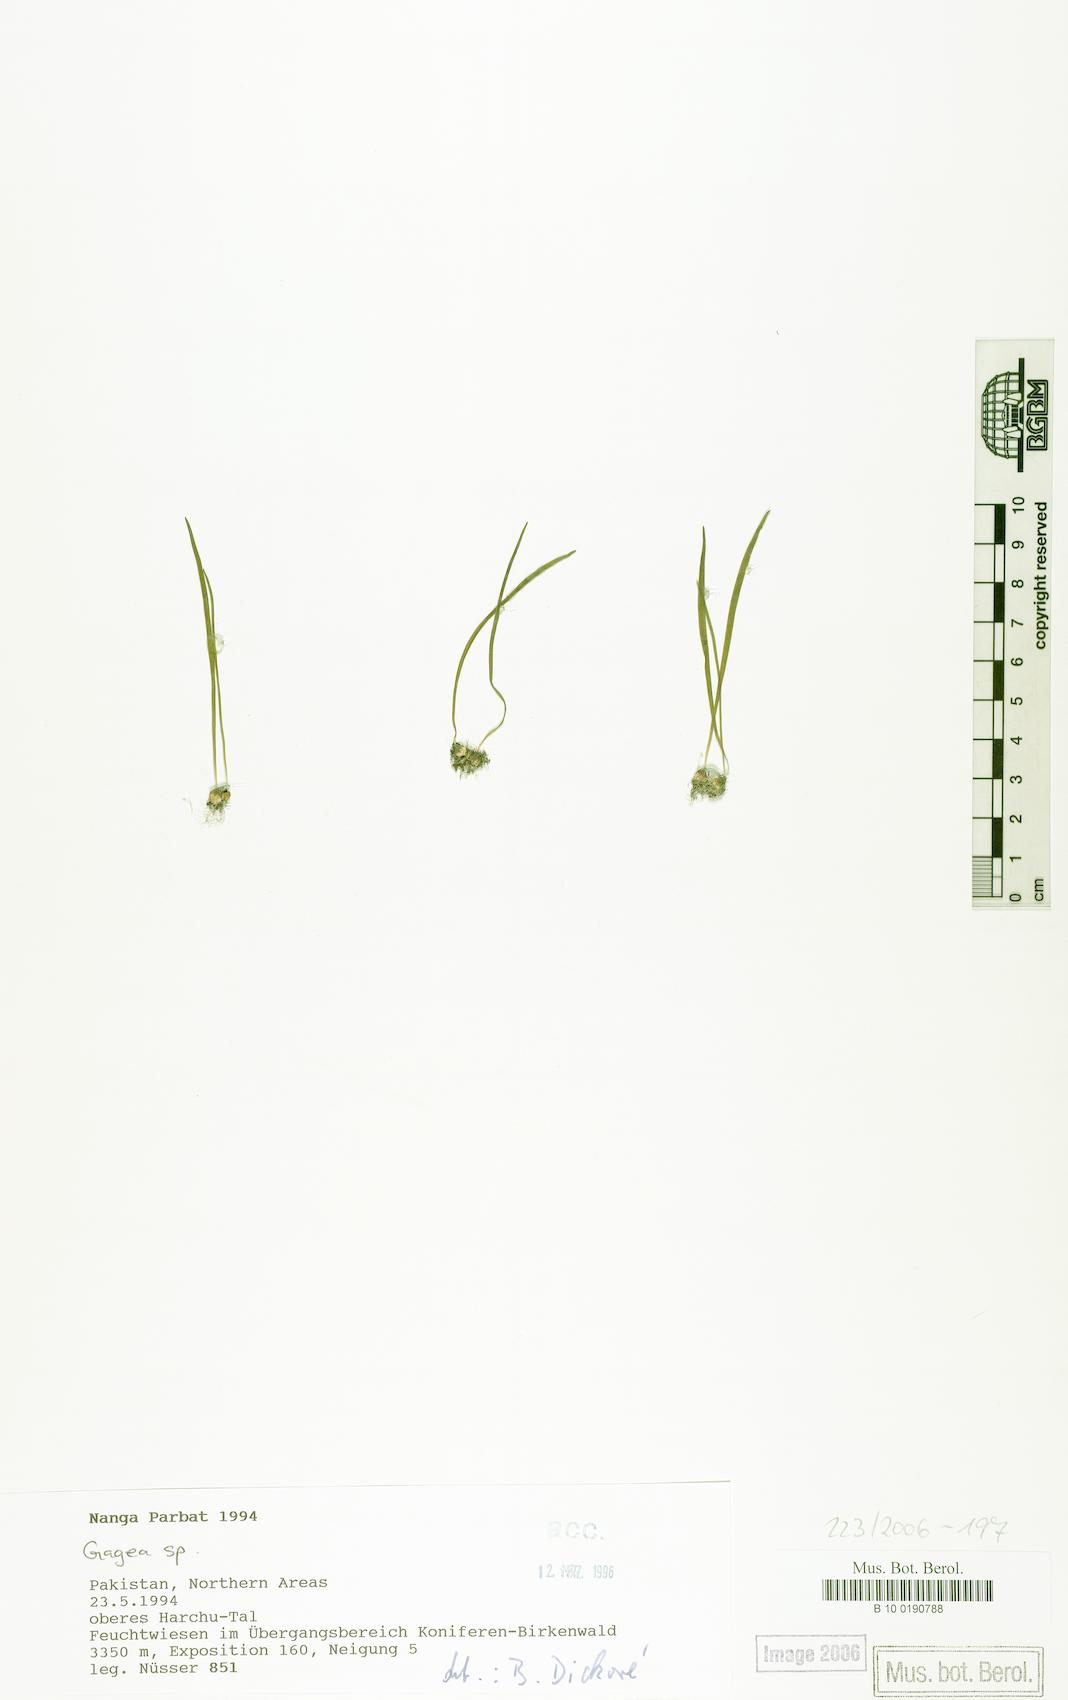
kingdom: Plantae
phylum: Tracheophyta
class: Liliopsida
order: Liliales
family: Liliaceae
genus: Gagea
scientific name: Gagea
